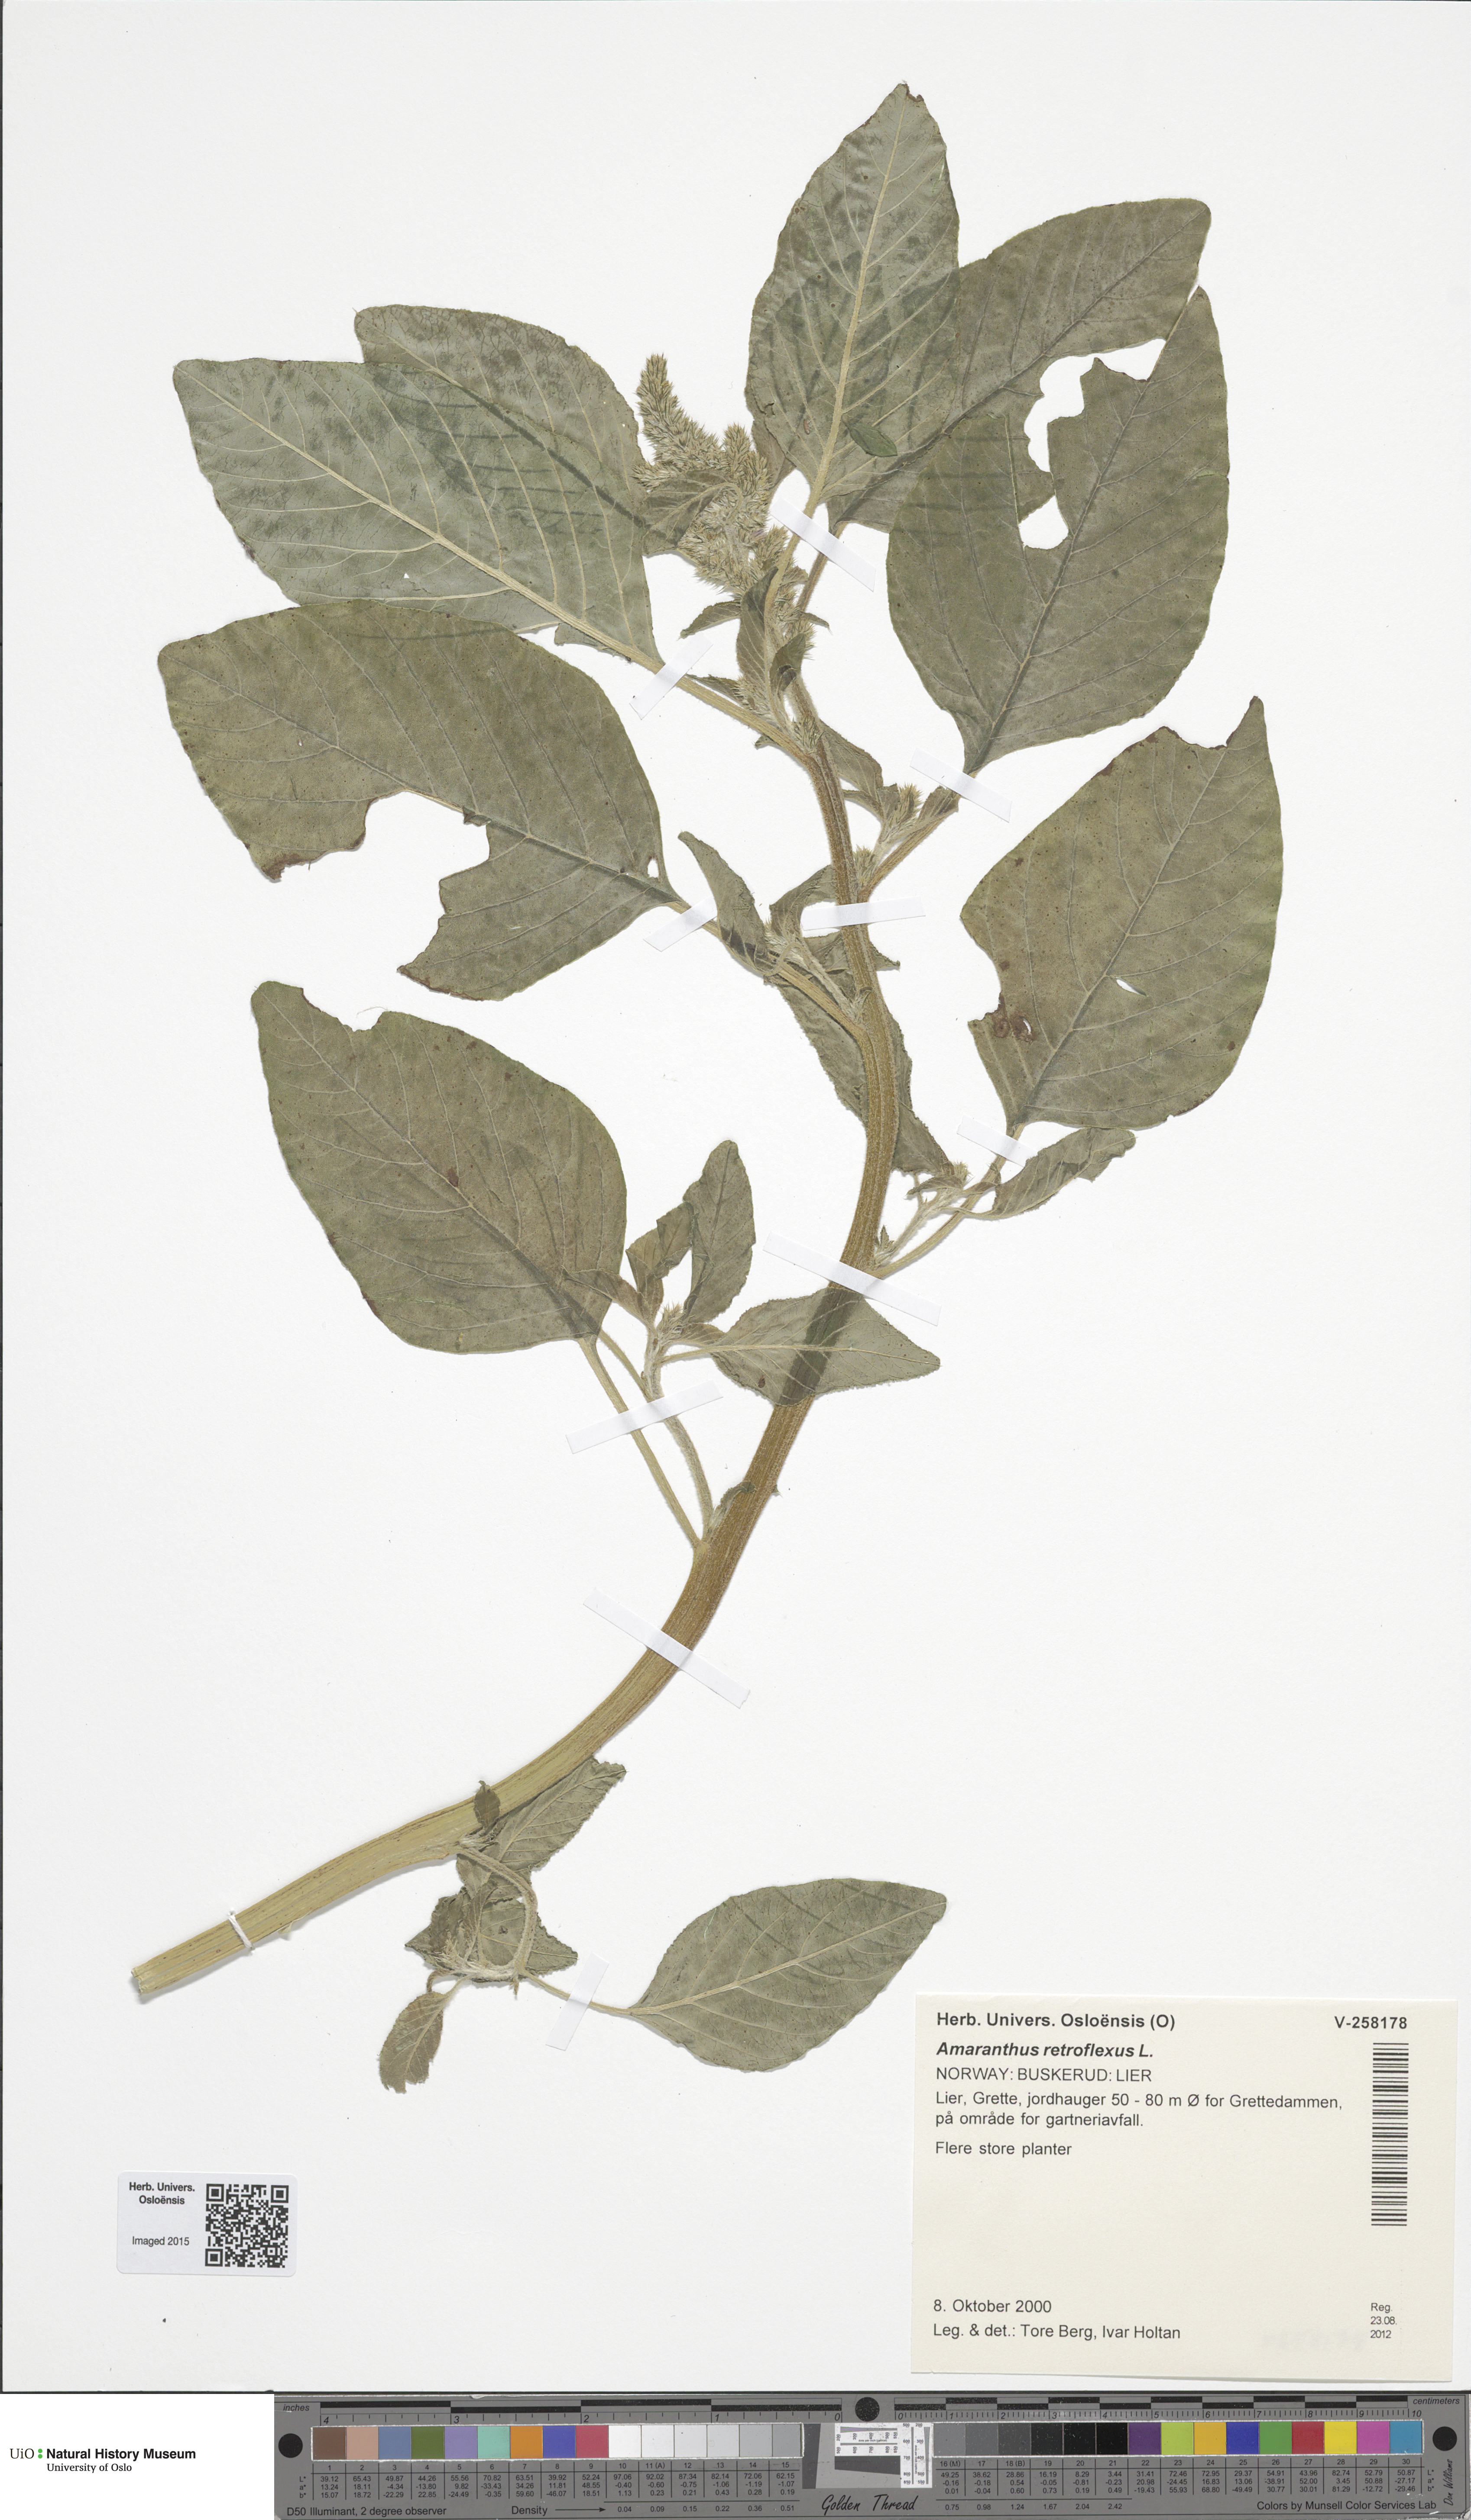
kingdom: Plantae
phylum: Tracheophyta
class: Magnoliopsida
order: Caryophyllales
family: Amaranthaceae
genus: Amaranthus
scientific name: Amaranthus retroflexus
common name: Redroot amaranth
